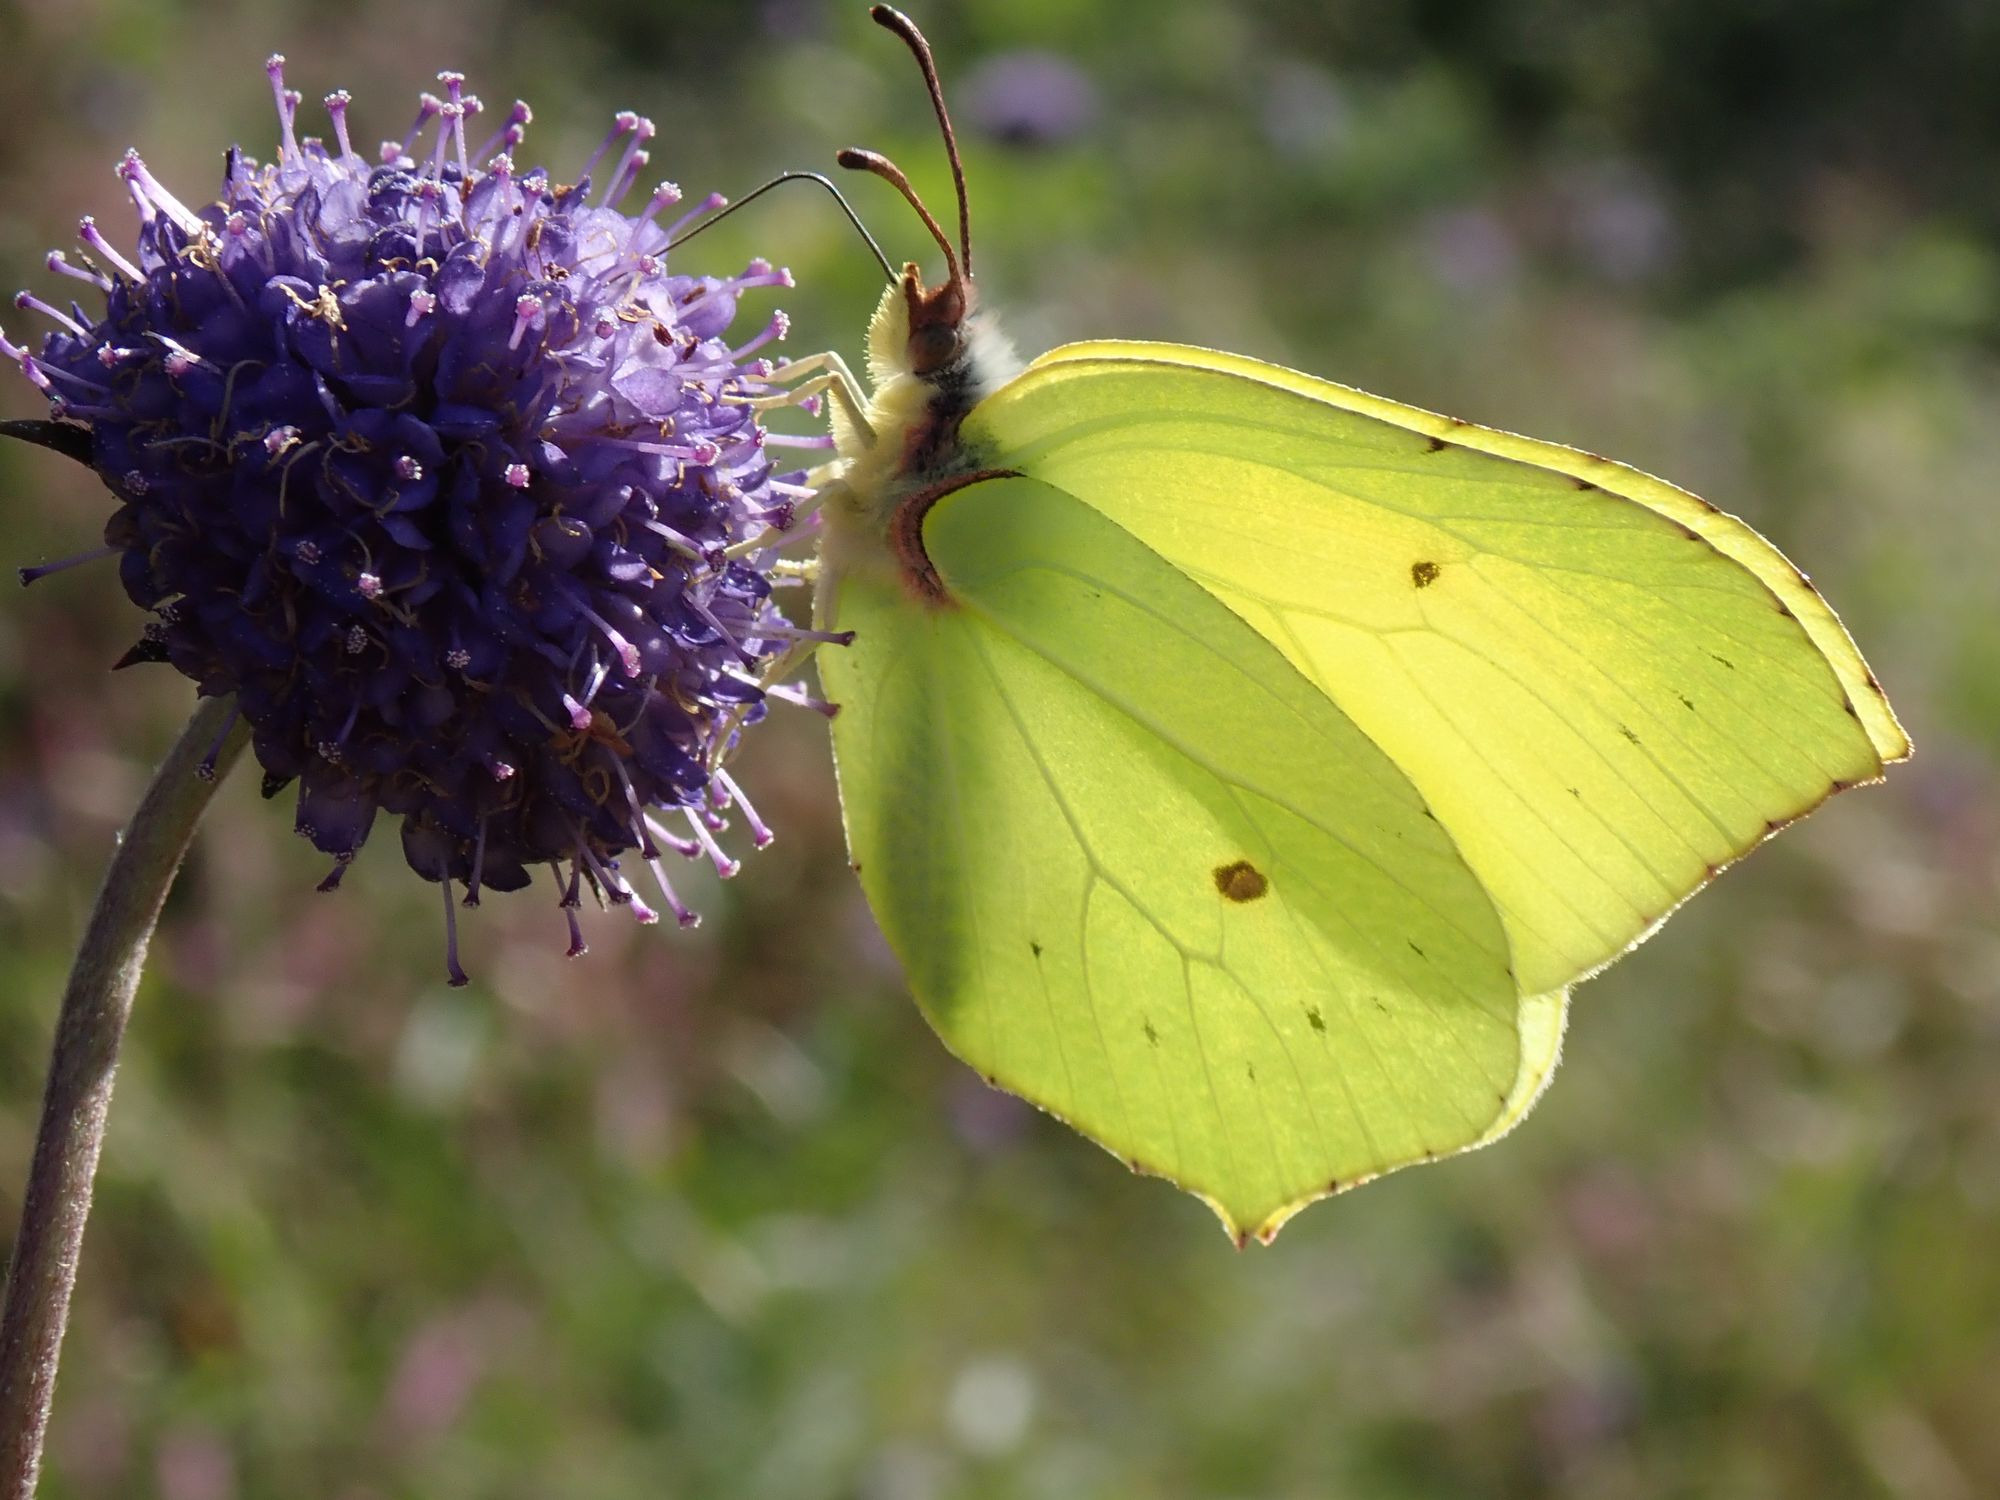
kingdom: Animalia
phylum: Arthropoda
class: Insecta
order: Lepidoptera
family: Pieridae
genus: Gonepteryx
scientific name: Gonepteryx rhamni
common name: Citronsommerfugl
